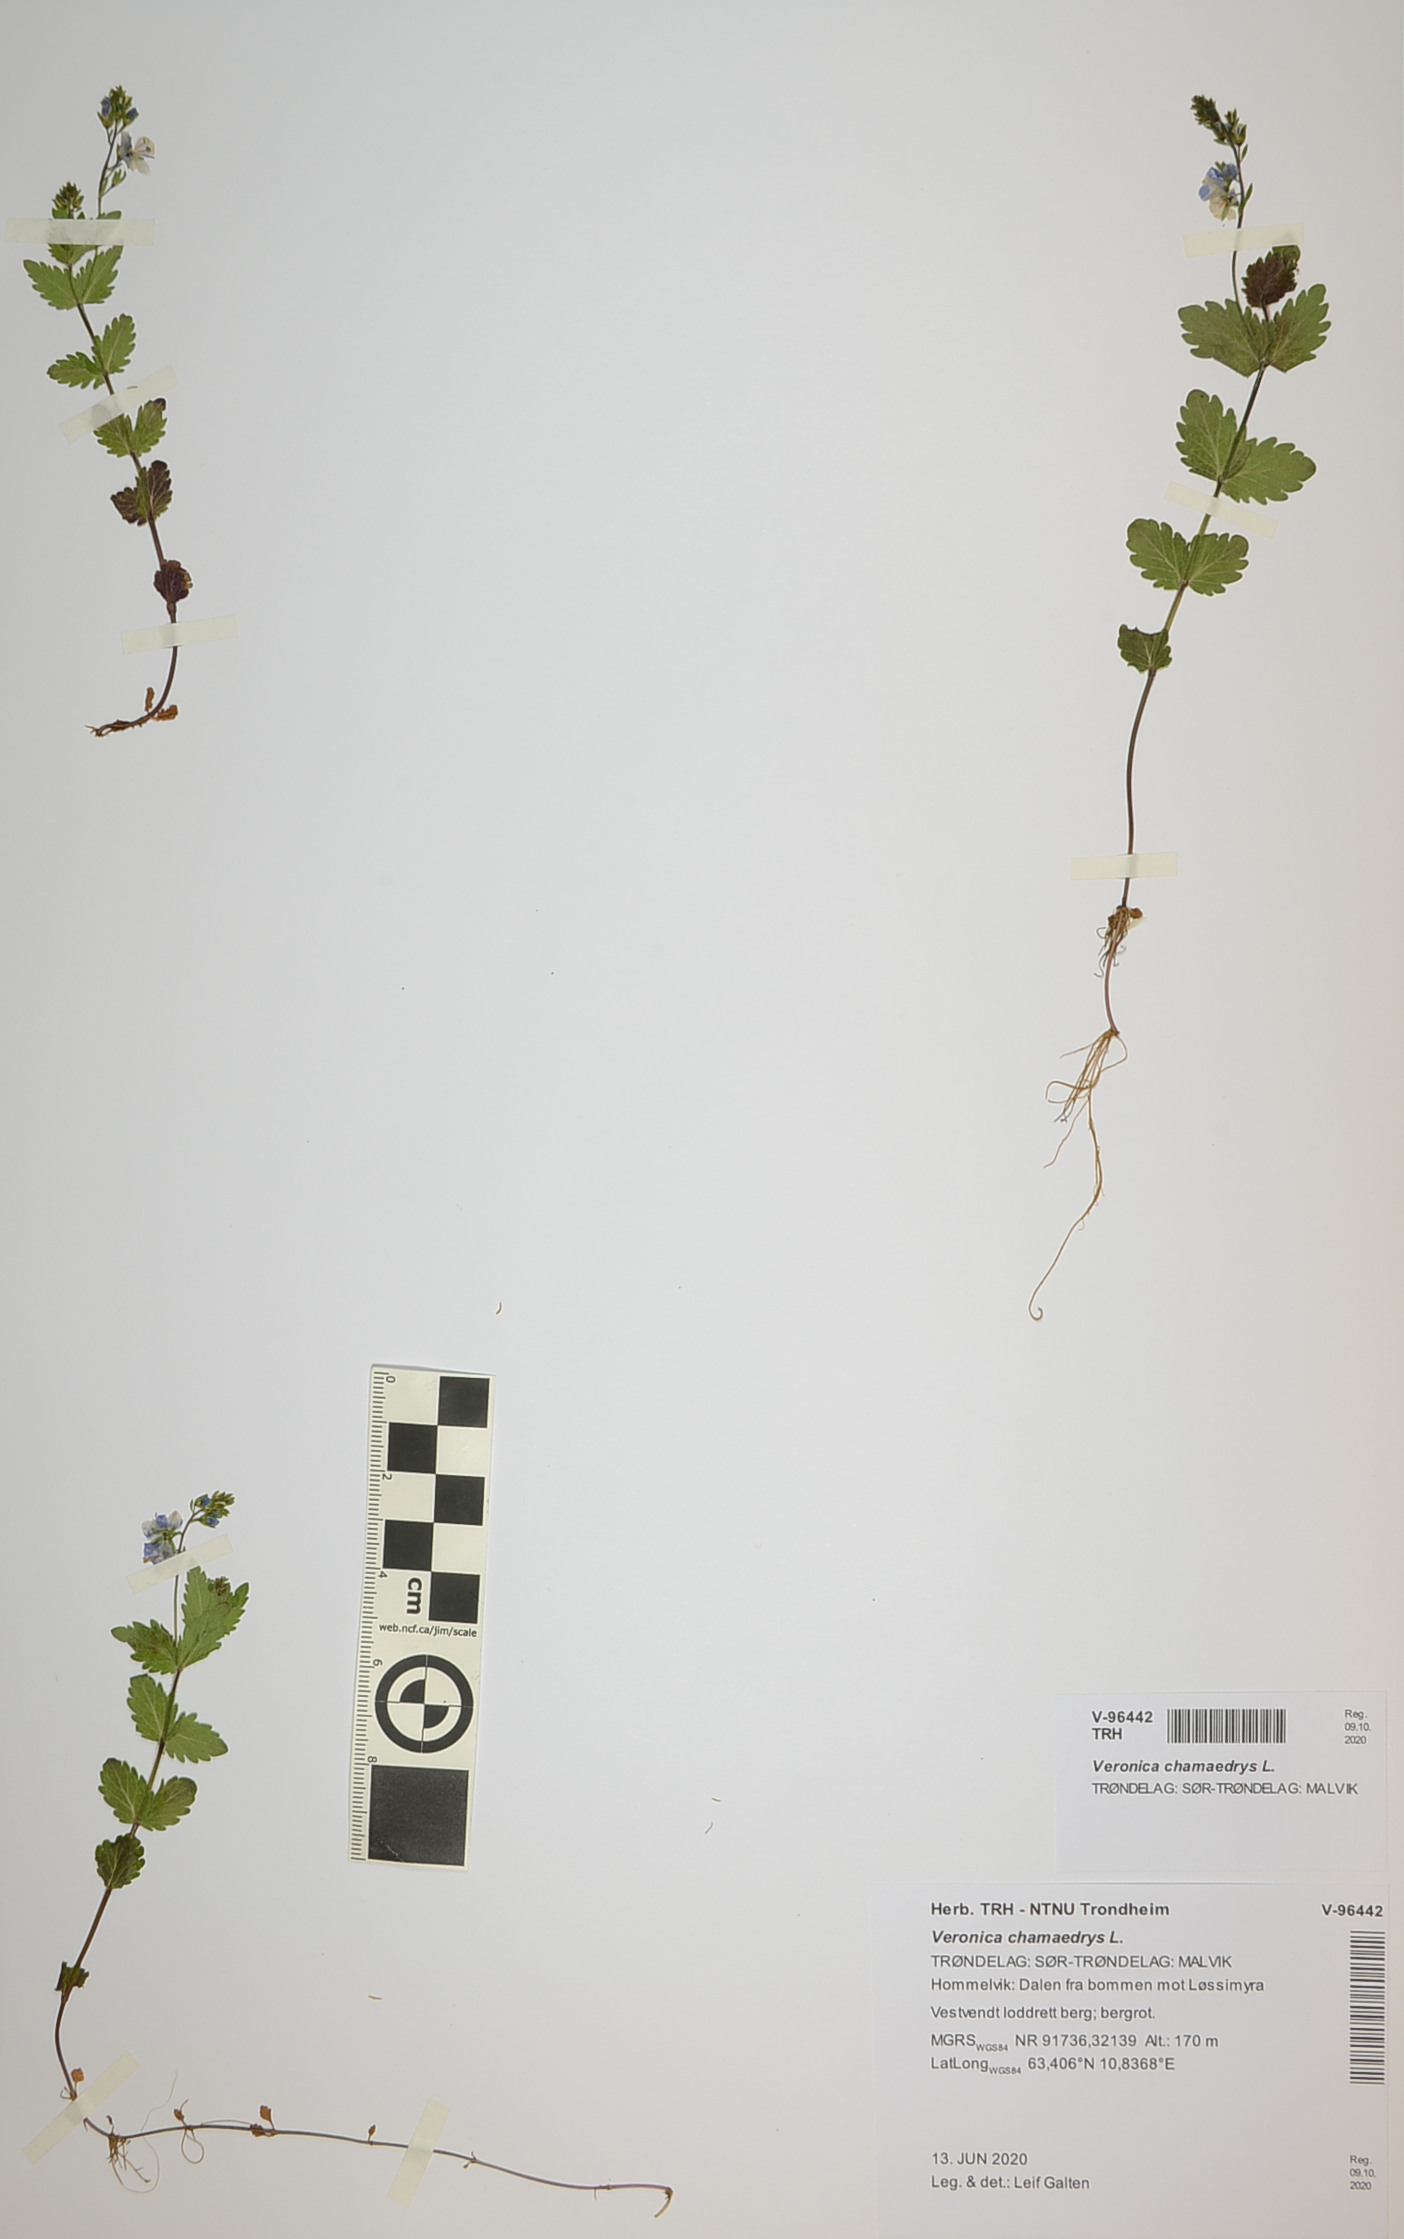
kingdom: Plantae
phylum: Tracheophyta
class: Magnoliopsida
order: Lamiales
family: Plantaginaceae
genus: Veronica
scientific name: Veronica chamaedrys
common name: Germander speedwell
